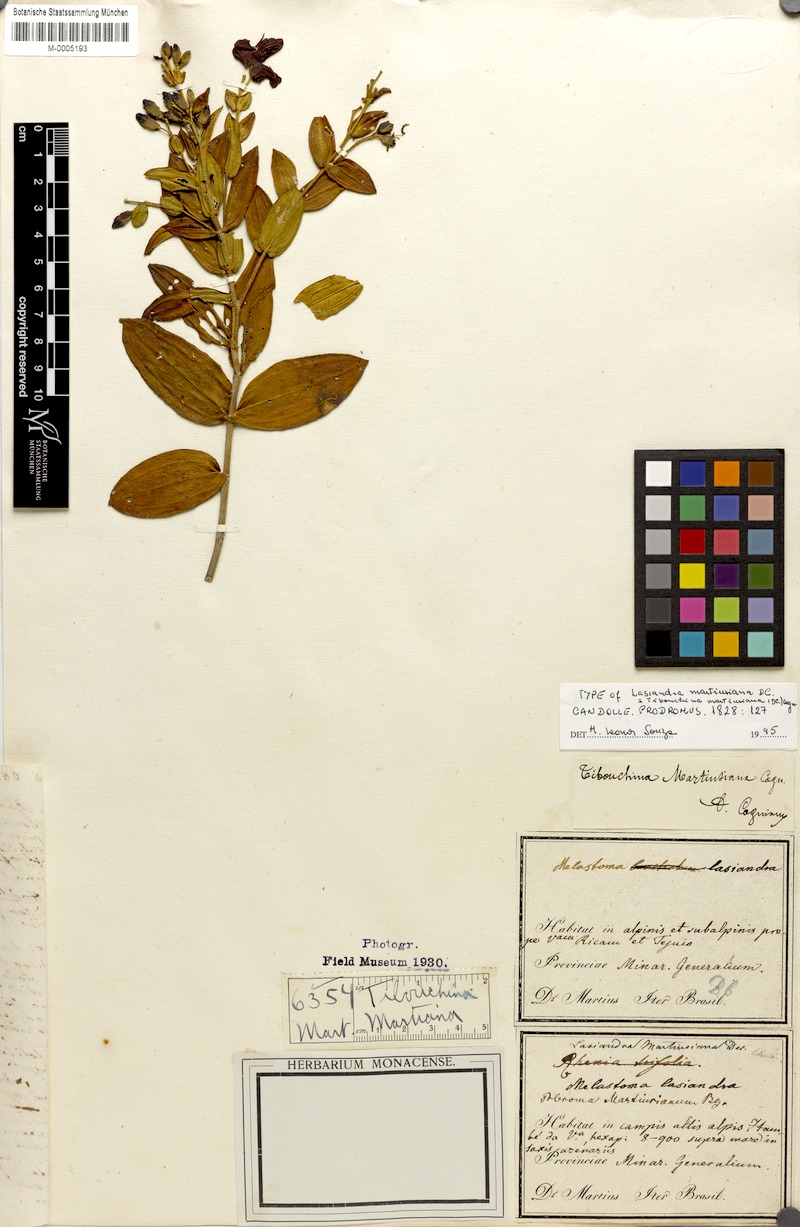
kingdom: Plantae
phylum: Tracheophyta
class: Magnoliopsida
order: Myrtales
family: Melastomataceae
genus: Pleroma
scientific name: Pleroma martiusianum
